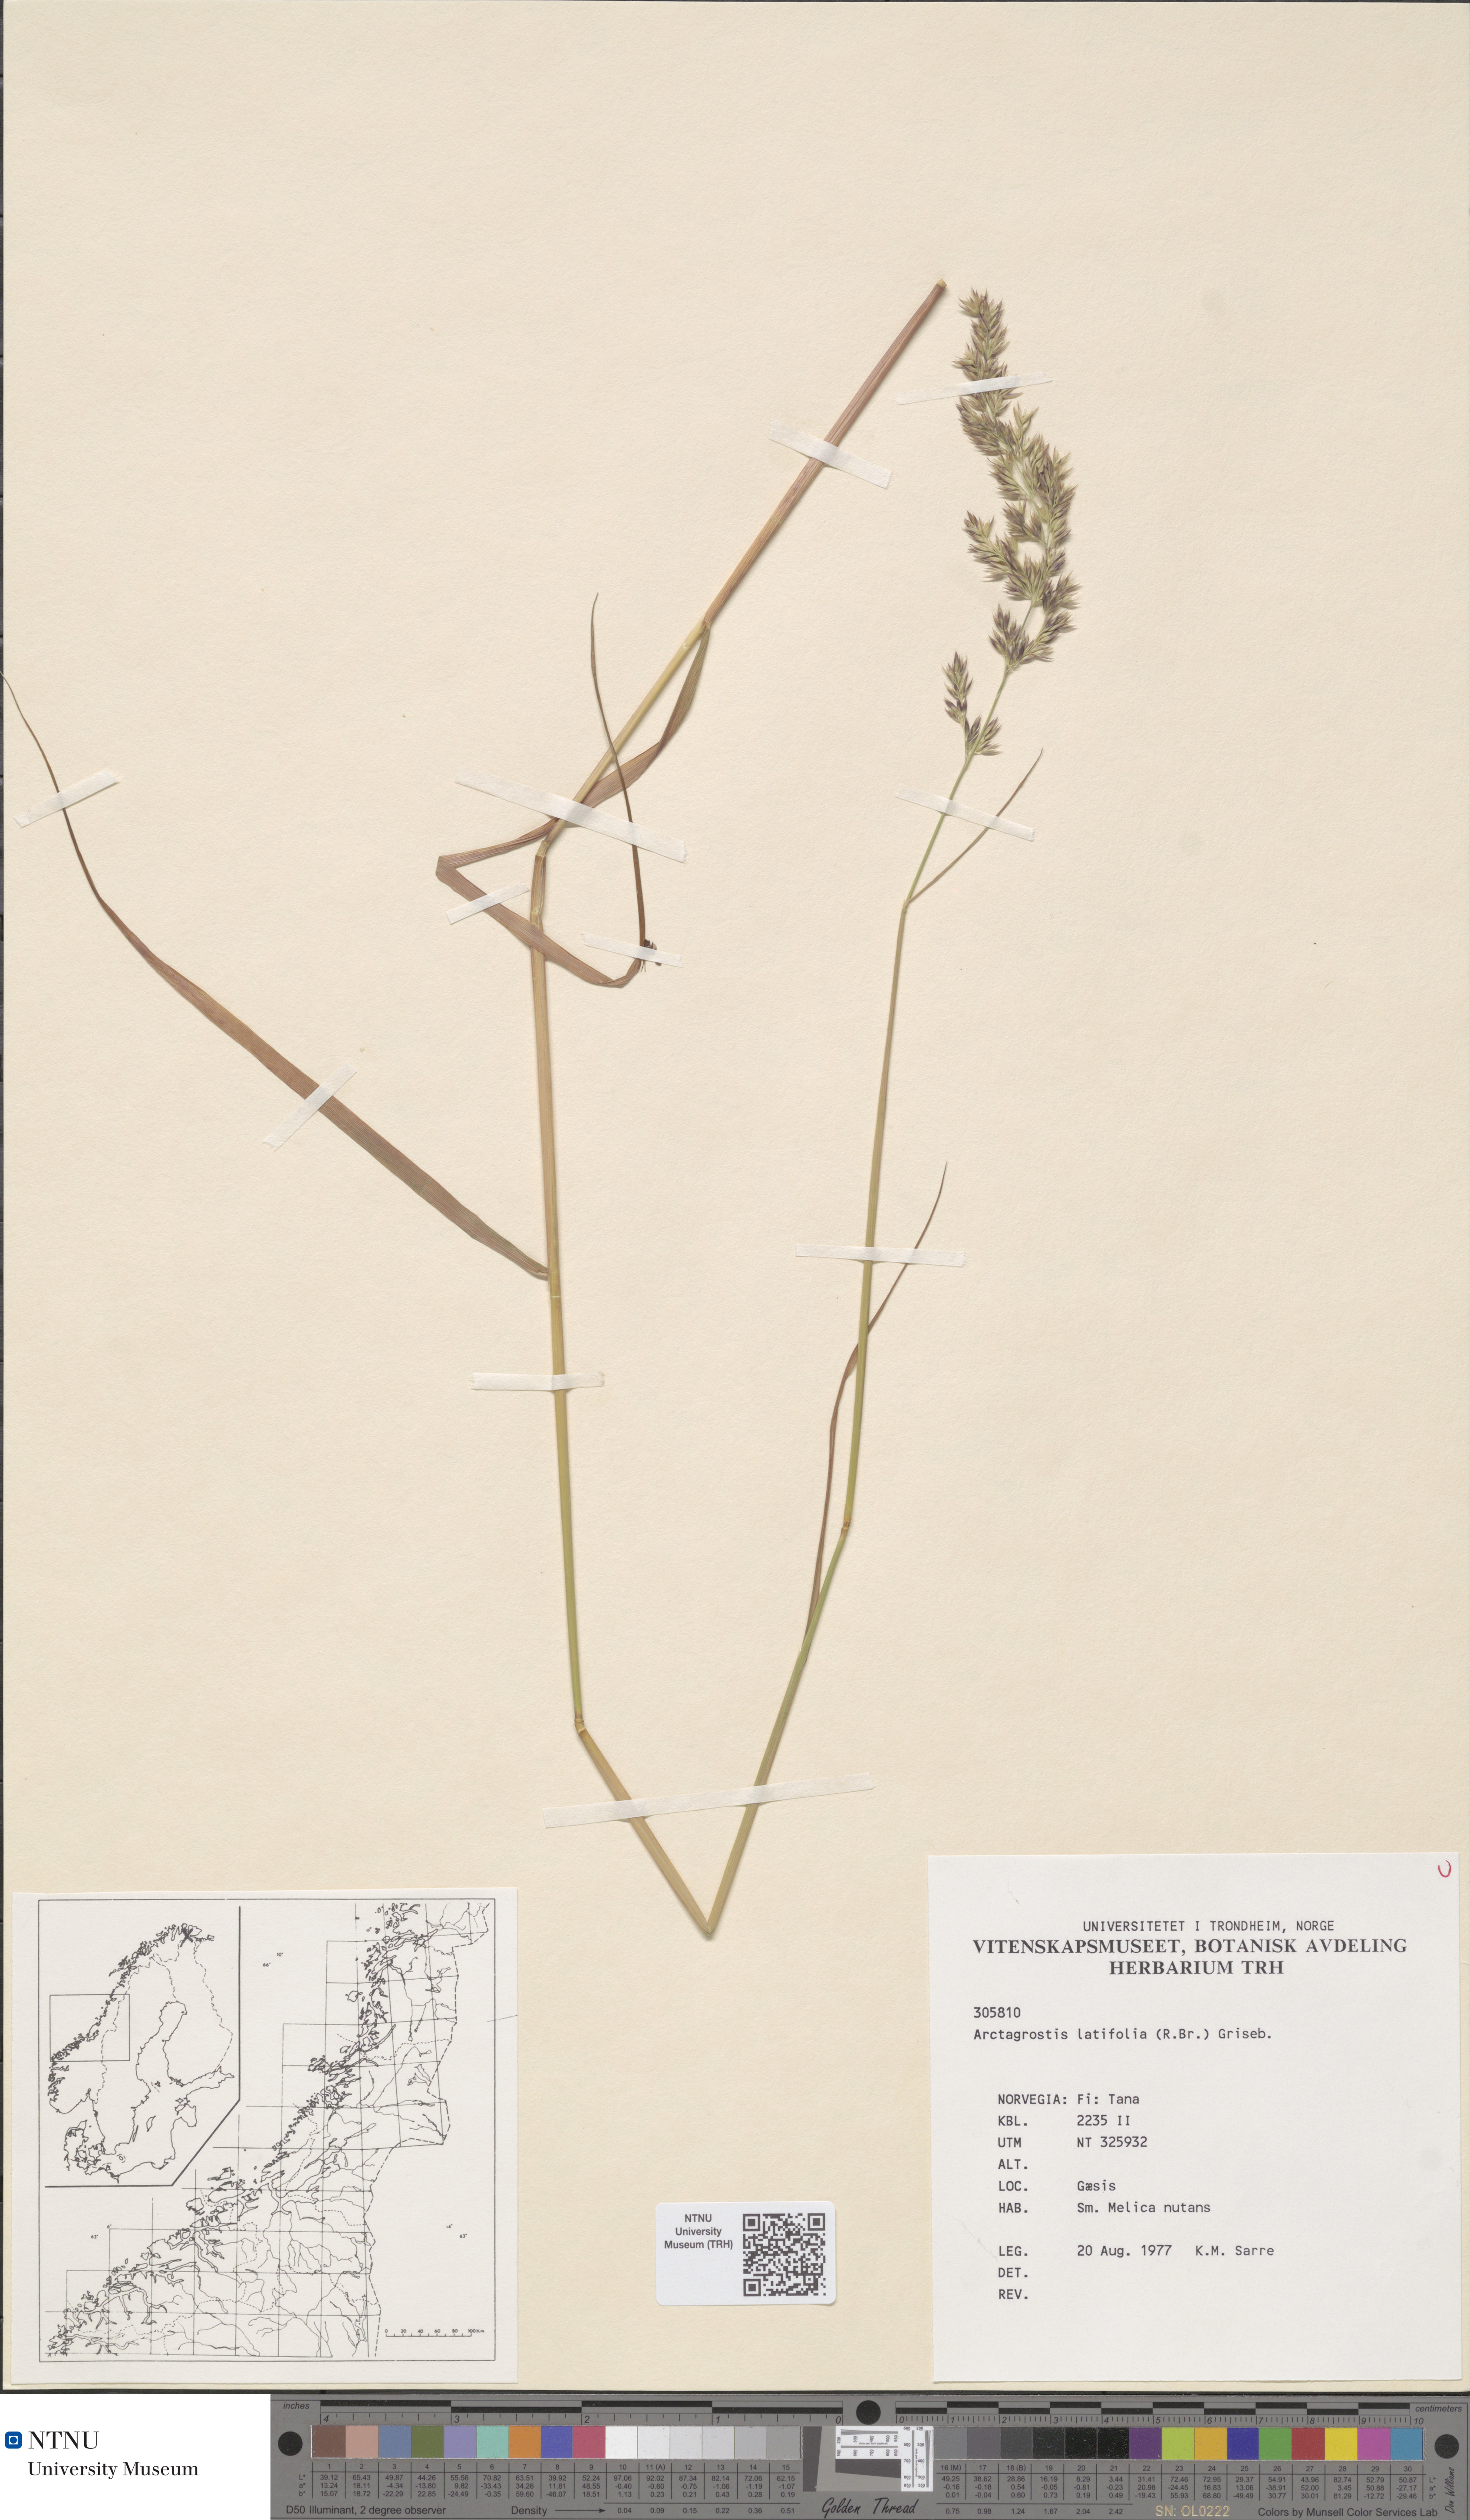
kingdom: Plantae
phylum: Tracheophyta
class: Liliopsida
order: Poales
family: Poaceae
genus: Arctagrostis
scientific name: Arctagrostis latifolia
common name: Arctic grass
